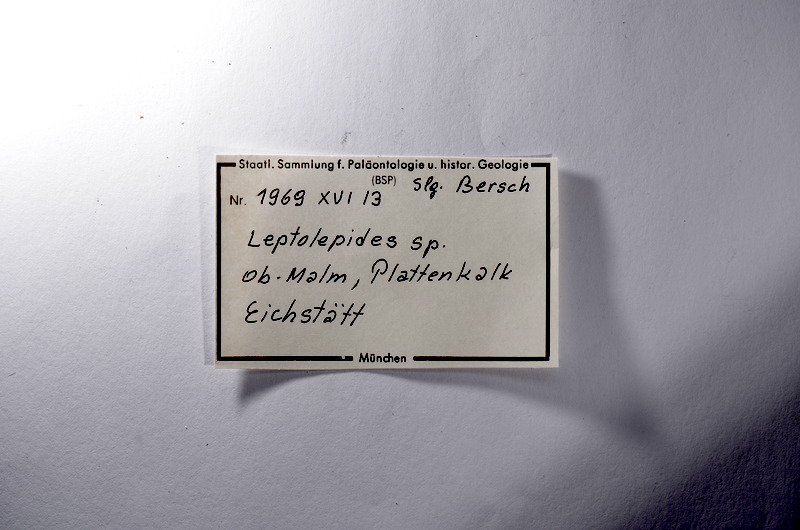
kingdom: Animalia
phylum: Chordata
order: Salmoniformes
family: Orthogonikleithridae
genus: Leptolepides
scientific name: Leptolepides
